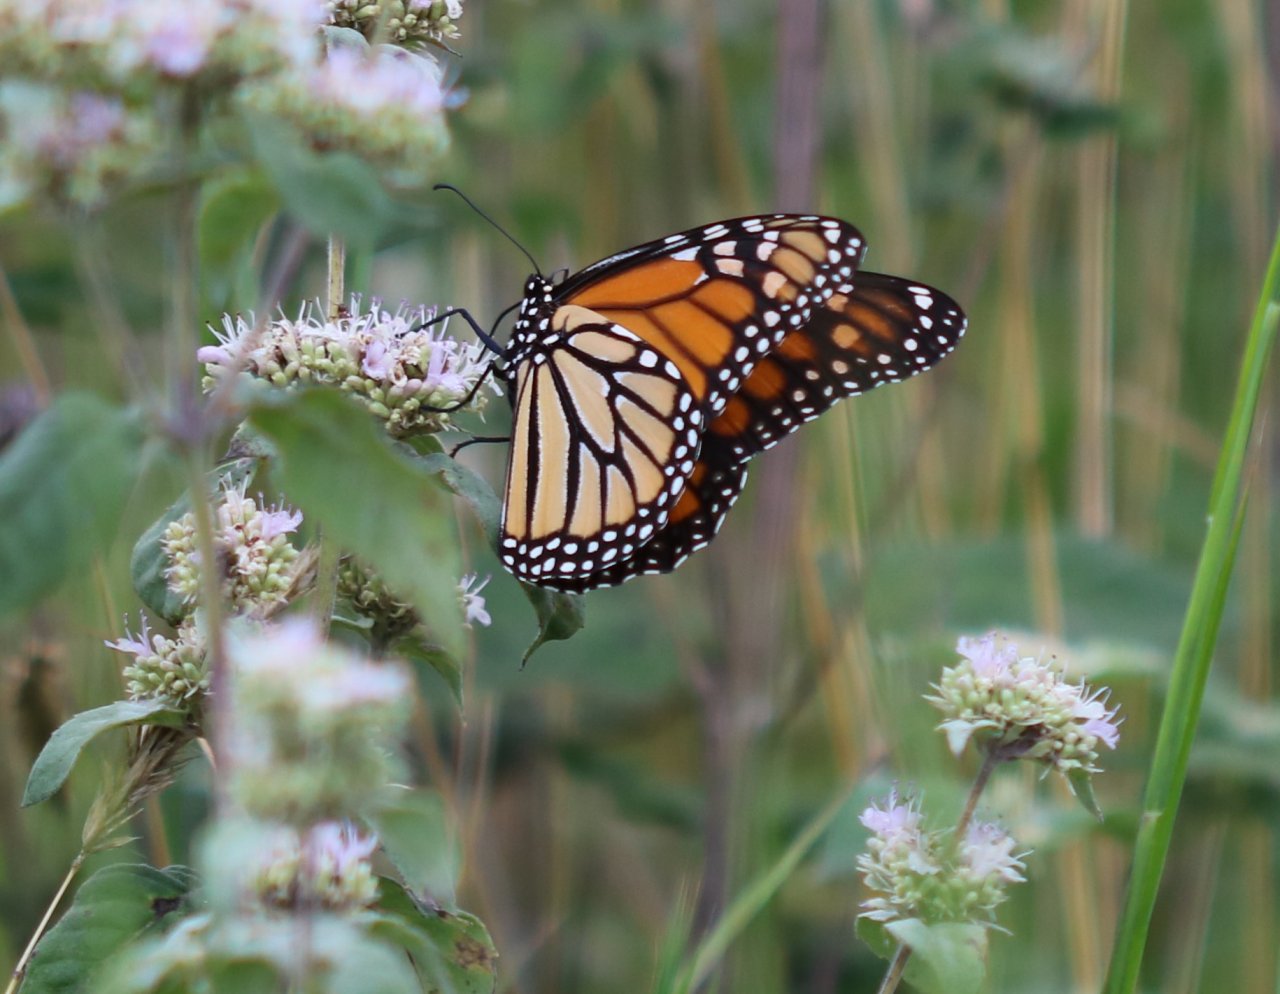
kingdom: Animalia
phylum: Arthropoda
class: Insecta
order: Lepidoptera
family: Nymphalidae
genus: Danaus
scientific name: Danaus plexippus
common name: Monarch
